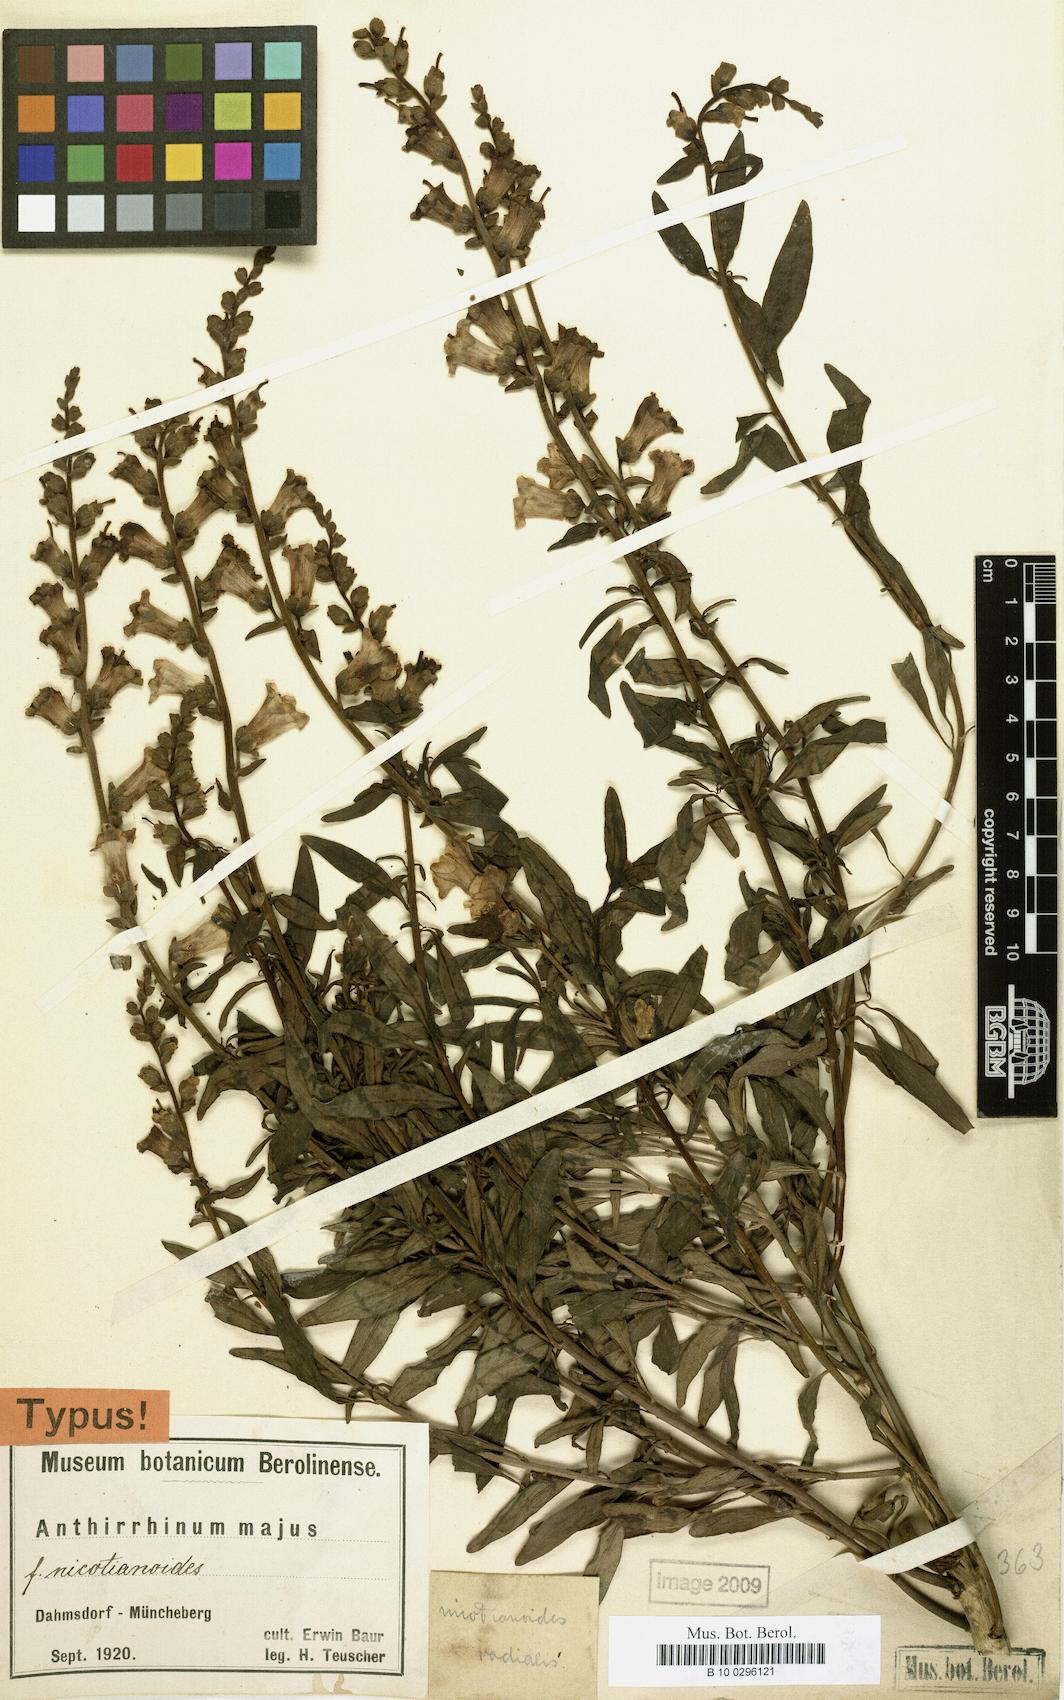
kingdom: Plantae
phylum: Tracheophyta
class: Magnoliopsida
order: Lamiales
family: Plantaginaceae
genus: Antirrhinum
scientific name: Antirrhinum majus
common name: Snapdragon
